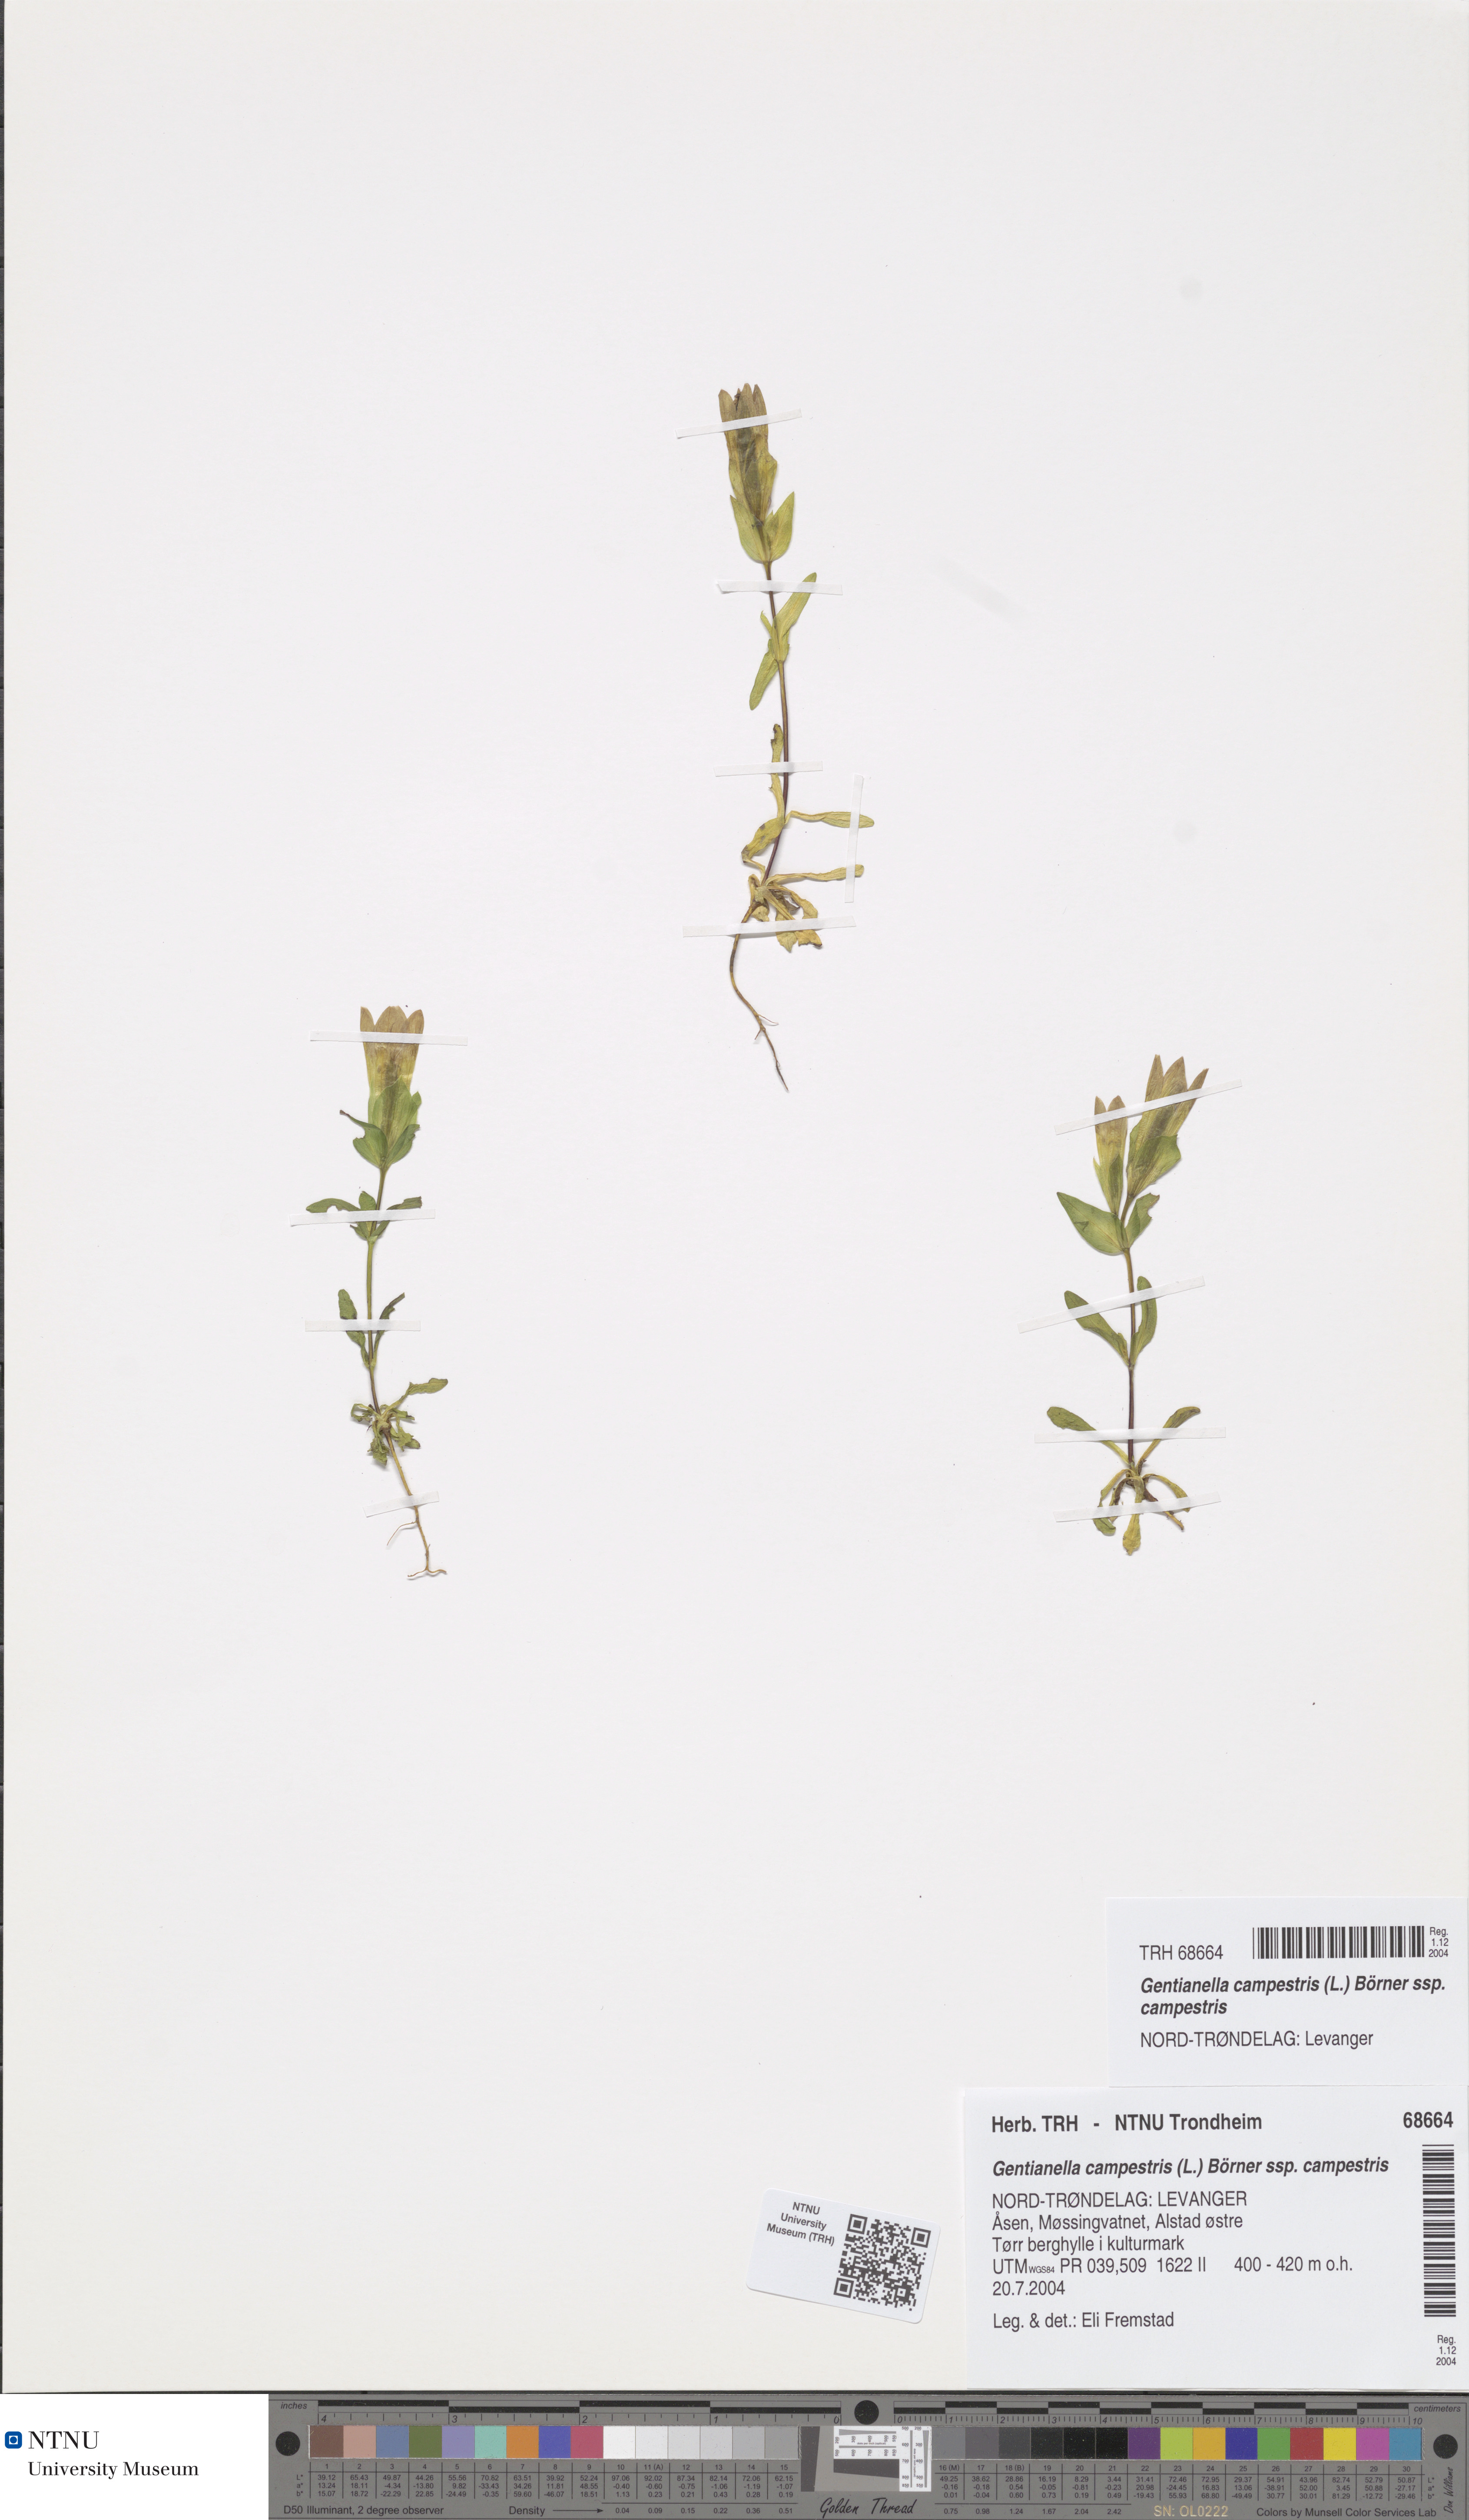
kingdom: Plantae
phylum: Tracheophyta
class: Magnoliopsida
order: Gentianales
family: Gentianaceae
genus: Gentianella
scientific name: Gentianella campestris
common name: Field gentian
